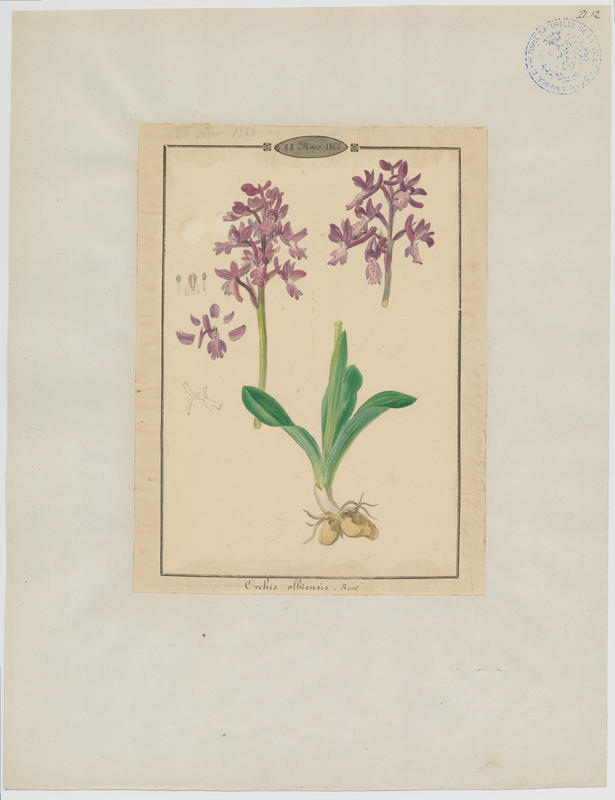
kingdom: Plantae
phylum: Tracheophyta
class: Liliopsida
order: Asparagales
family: Orchidaceae
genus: Orchis
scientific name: Orchis olbiensis
